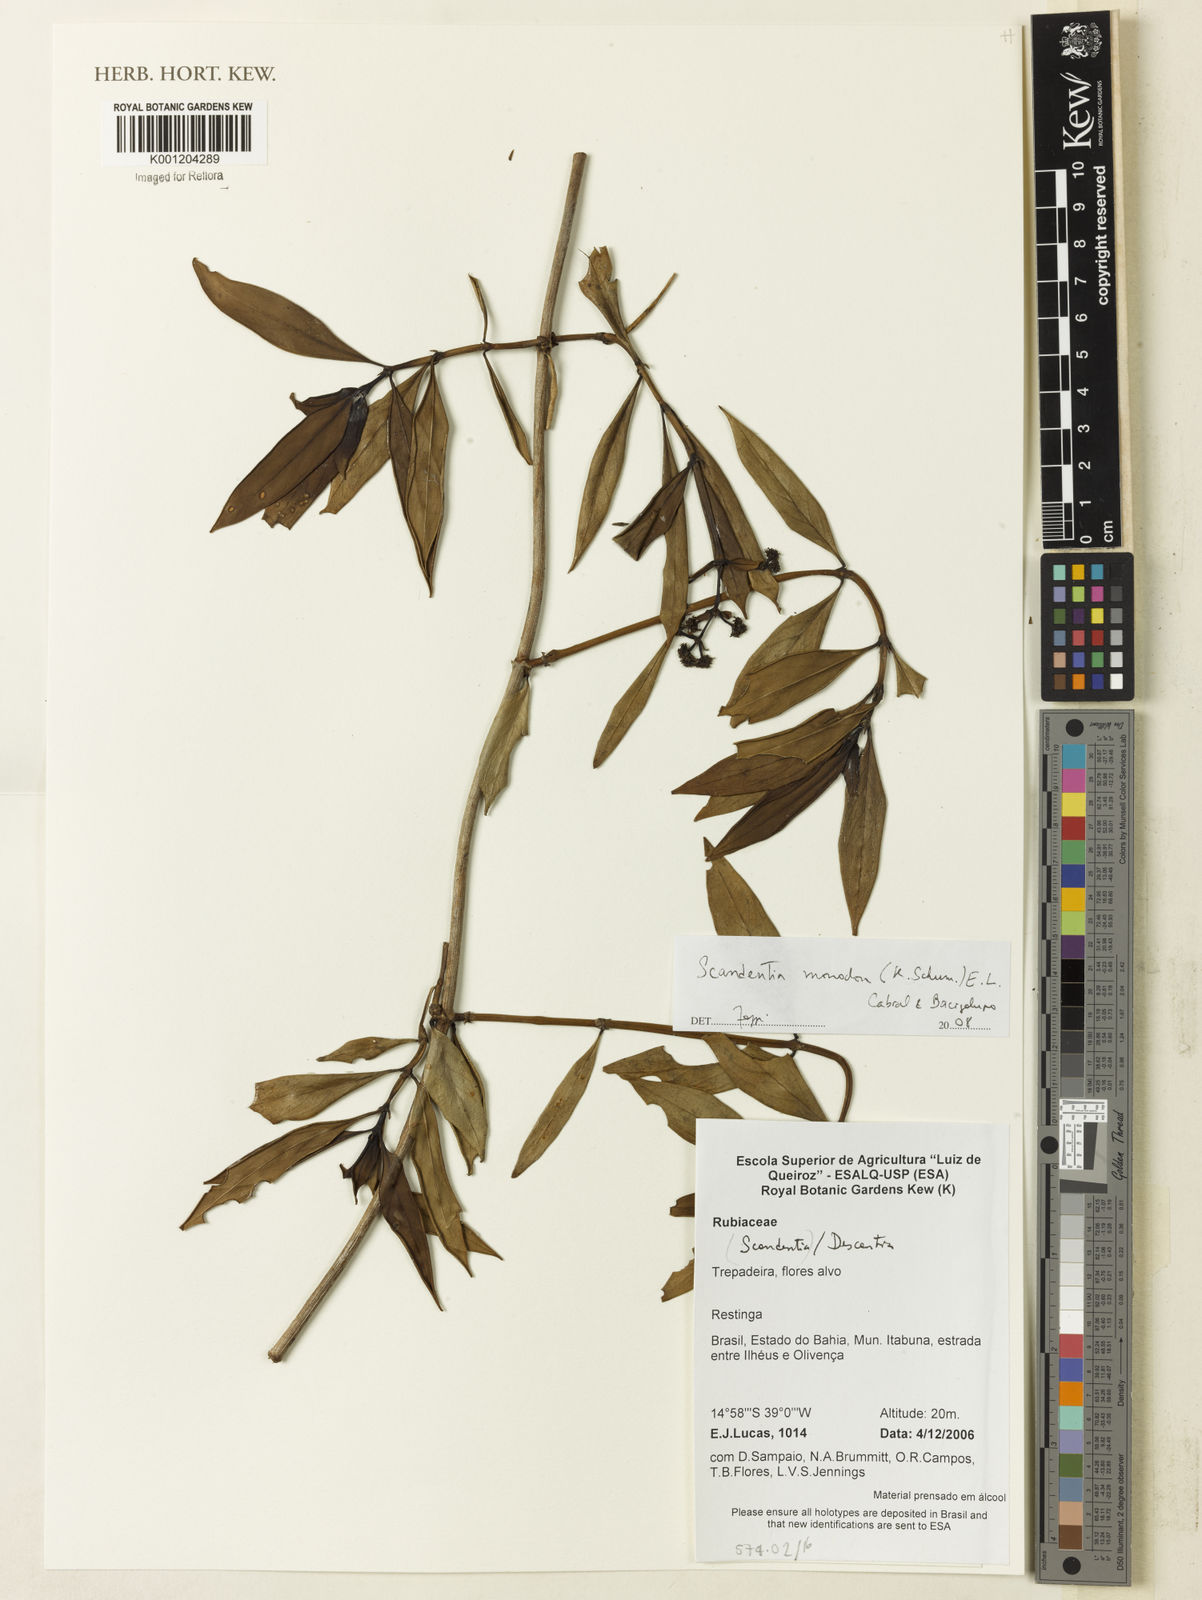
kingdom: Plantae
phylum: Tracheophyta
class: Magnoliopsida
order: Gentianales
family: Rubiaceae
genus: Denscantia
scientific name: Denscantia monodon
